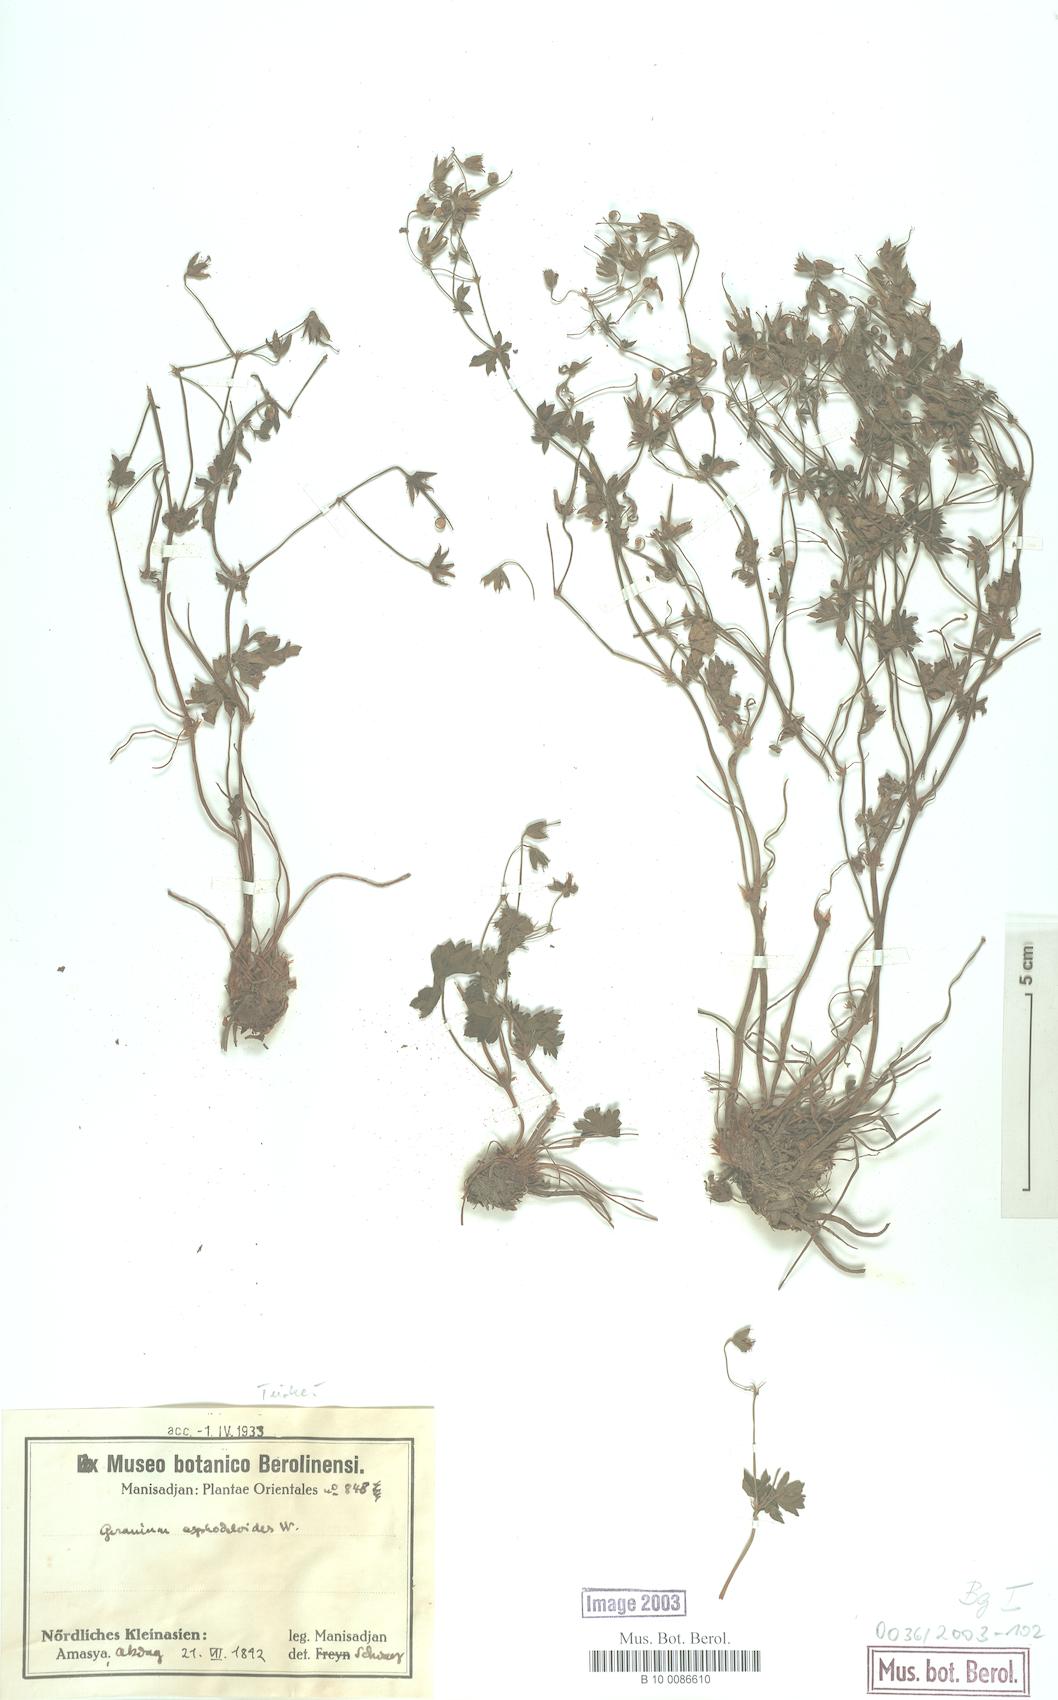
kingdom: Plantae
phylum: Tracheophyta
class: Magnoliopsida
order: Geraniales
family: Geraniaceae
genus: Geranium
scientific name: Geranium asphodeloides
